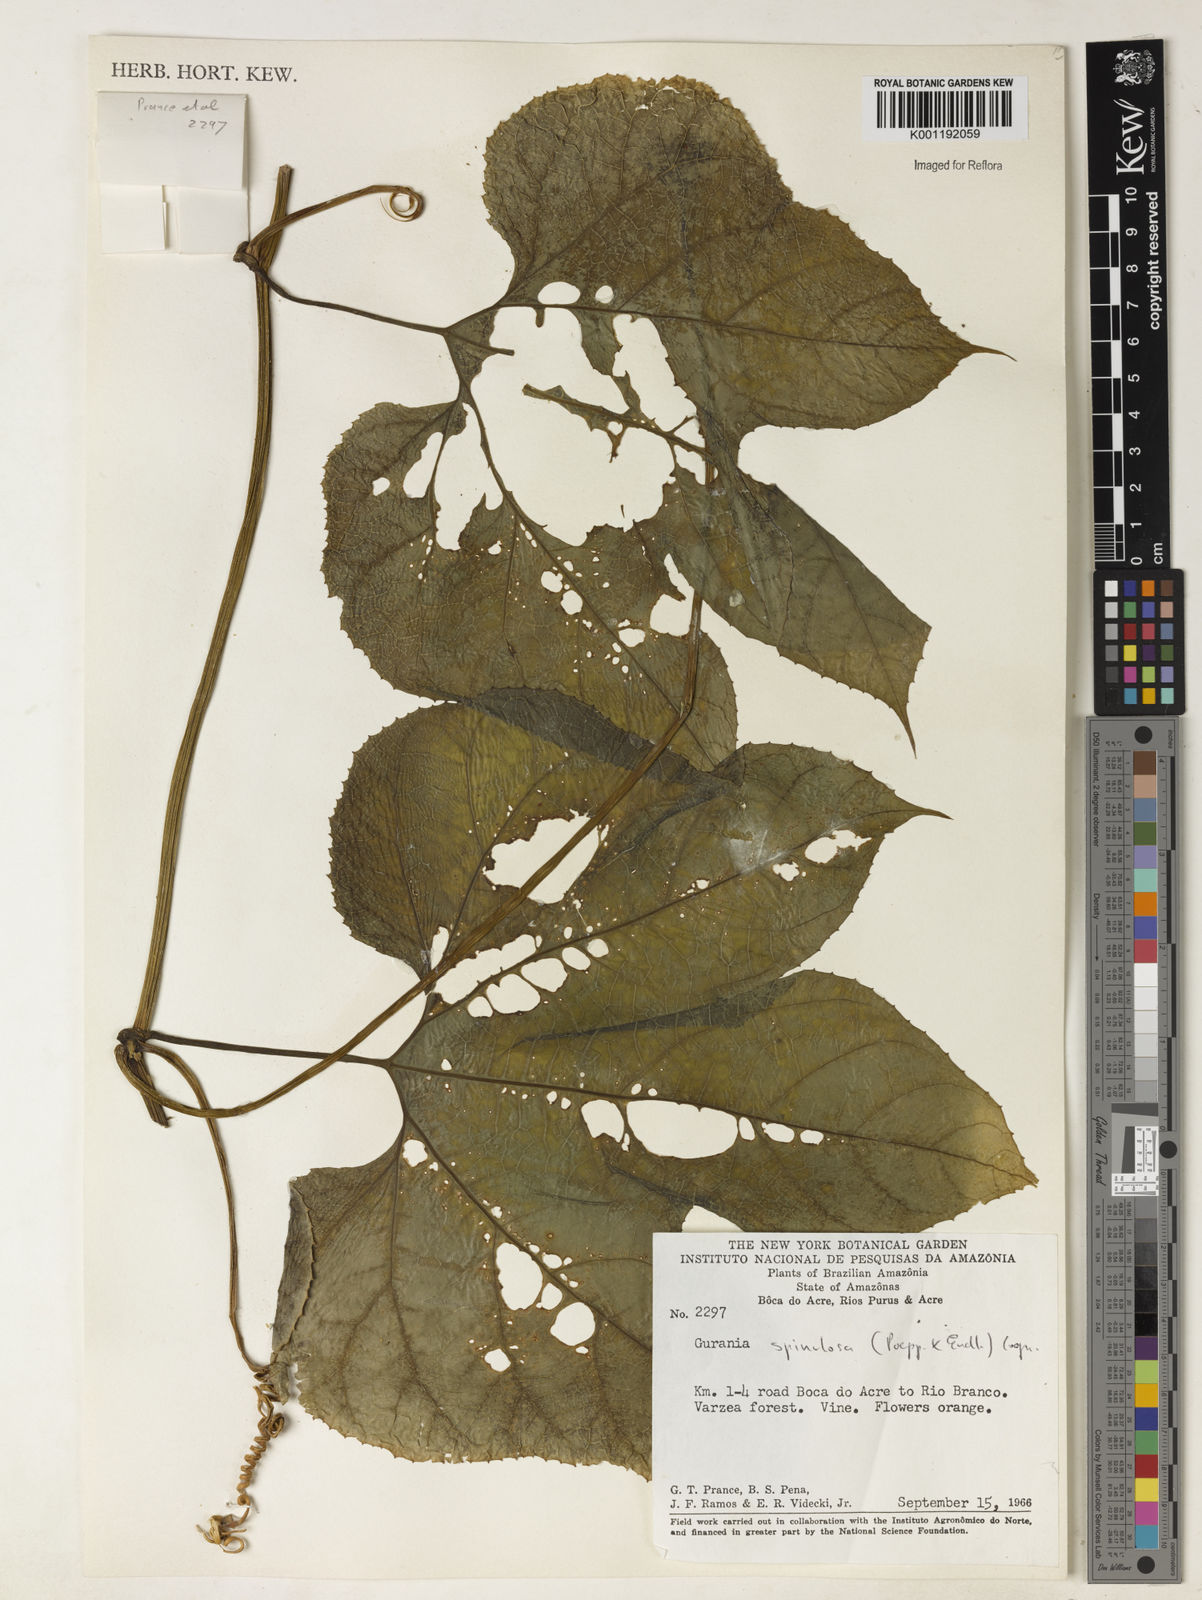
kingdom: Plantae
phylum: Tracheophyta
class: Magnoliopsida
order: Cucurbitales
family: Cucurbitaceae
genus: Gurania
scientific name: Gurania lobata
